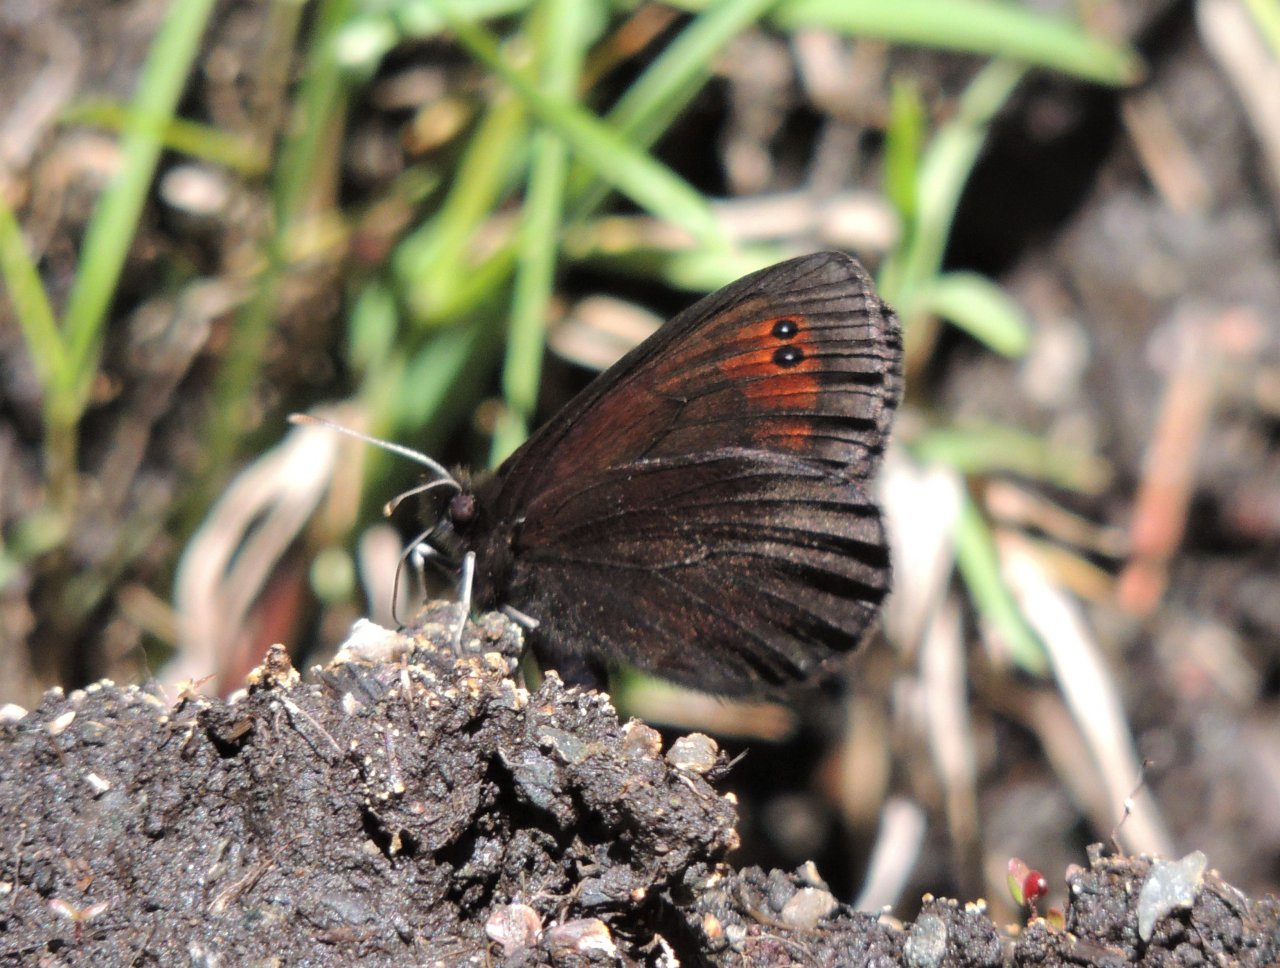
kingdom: Animalia
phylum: Arthropoda
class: Insecta
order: Lepidoptera
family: Nymphalidae
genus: Erebia
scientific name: Erebia epipsodea
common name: Common Alpine
